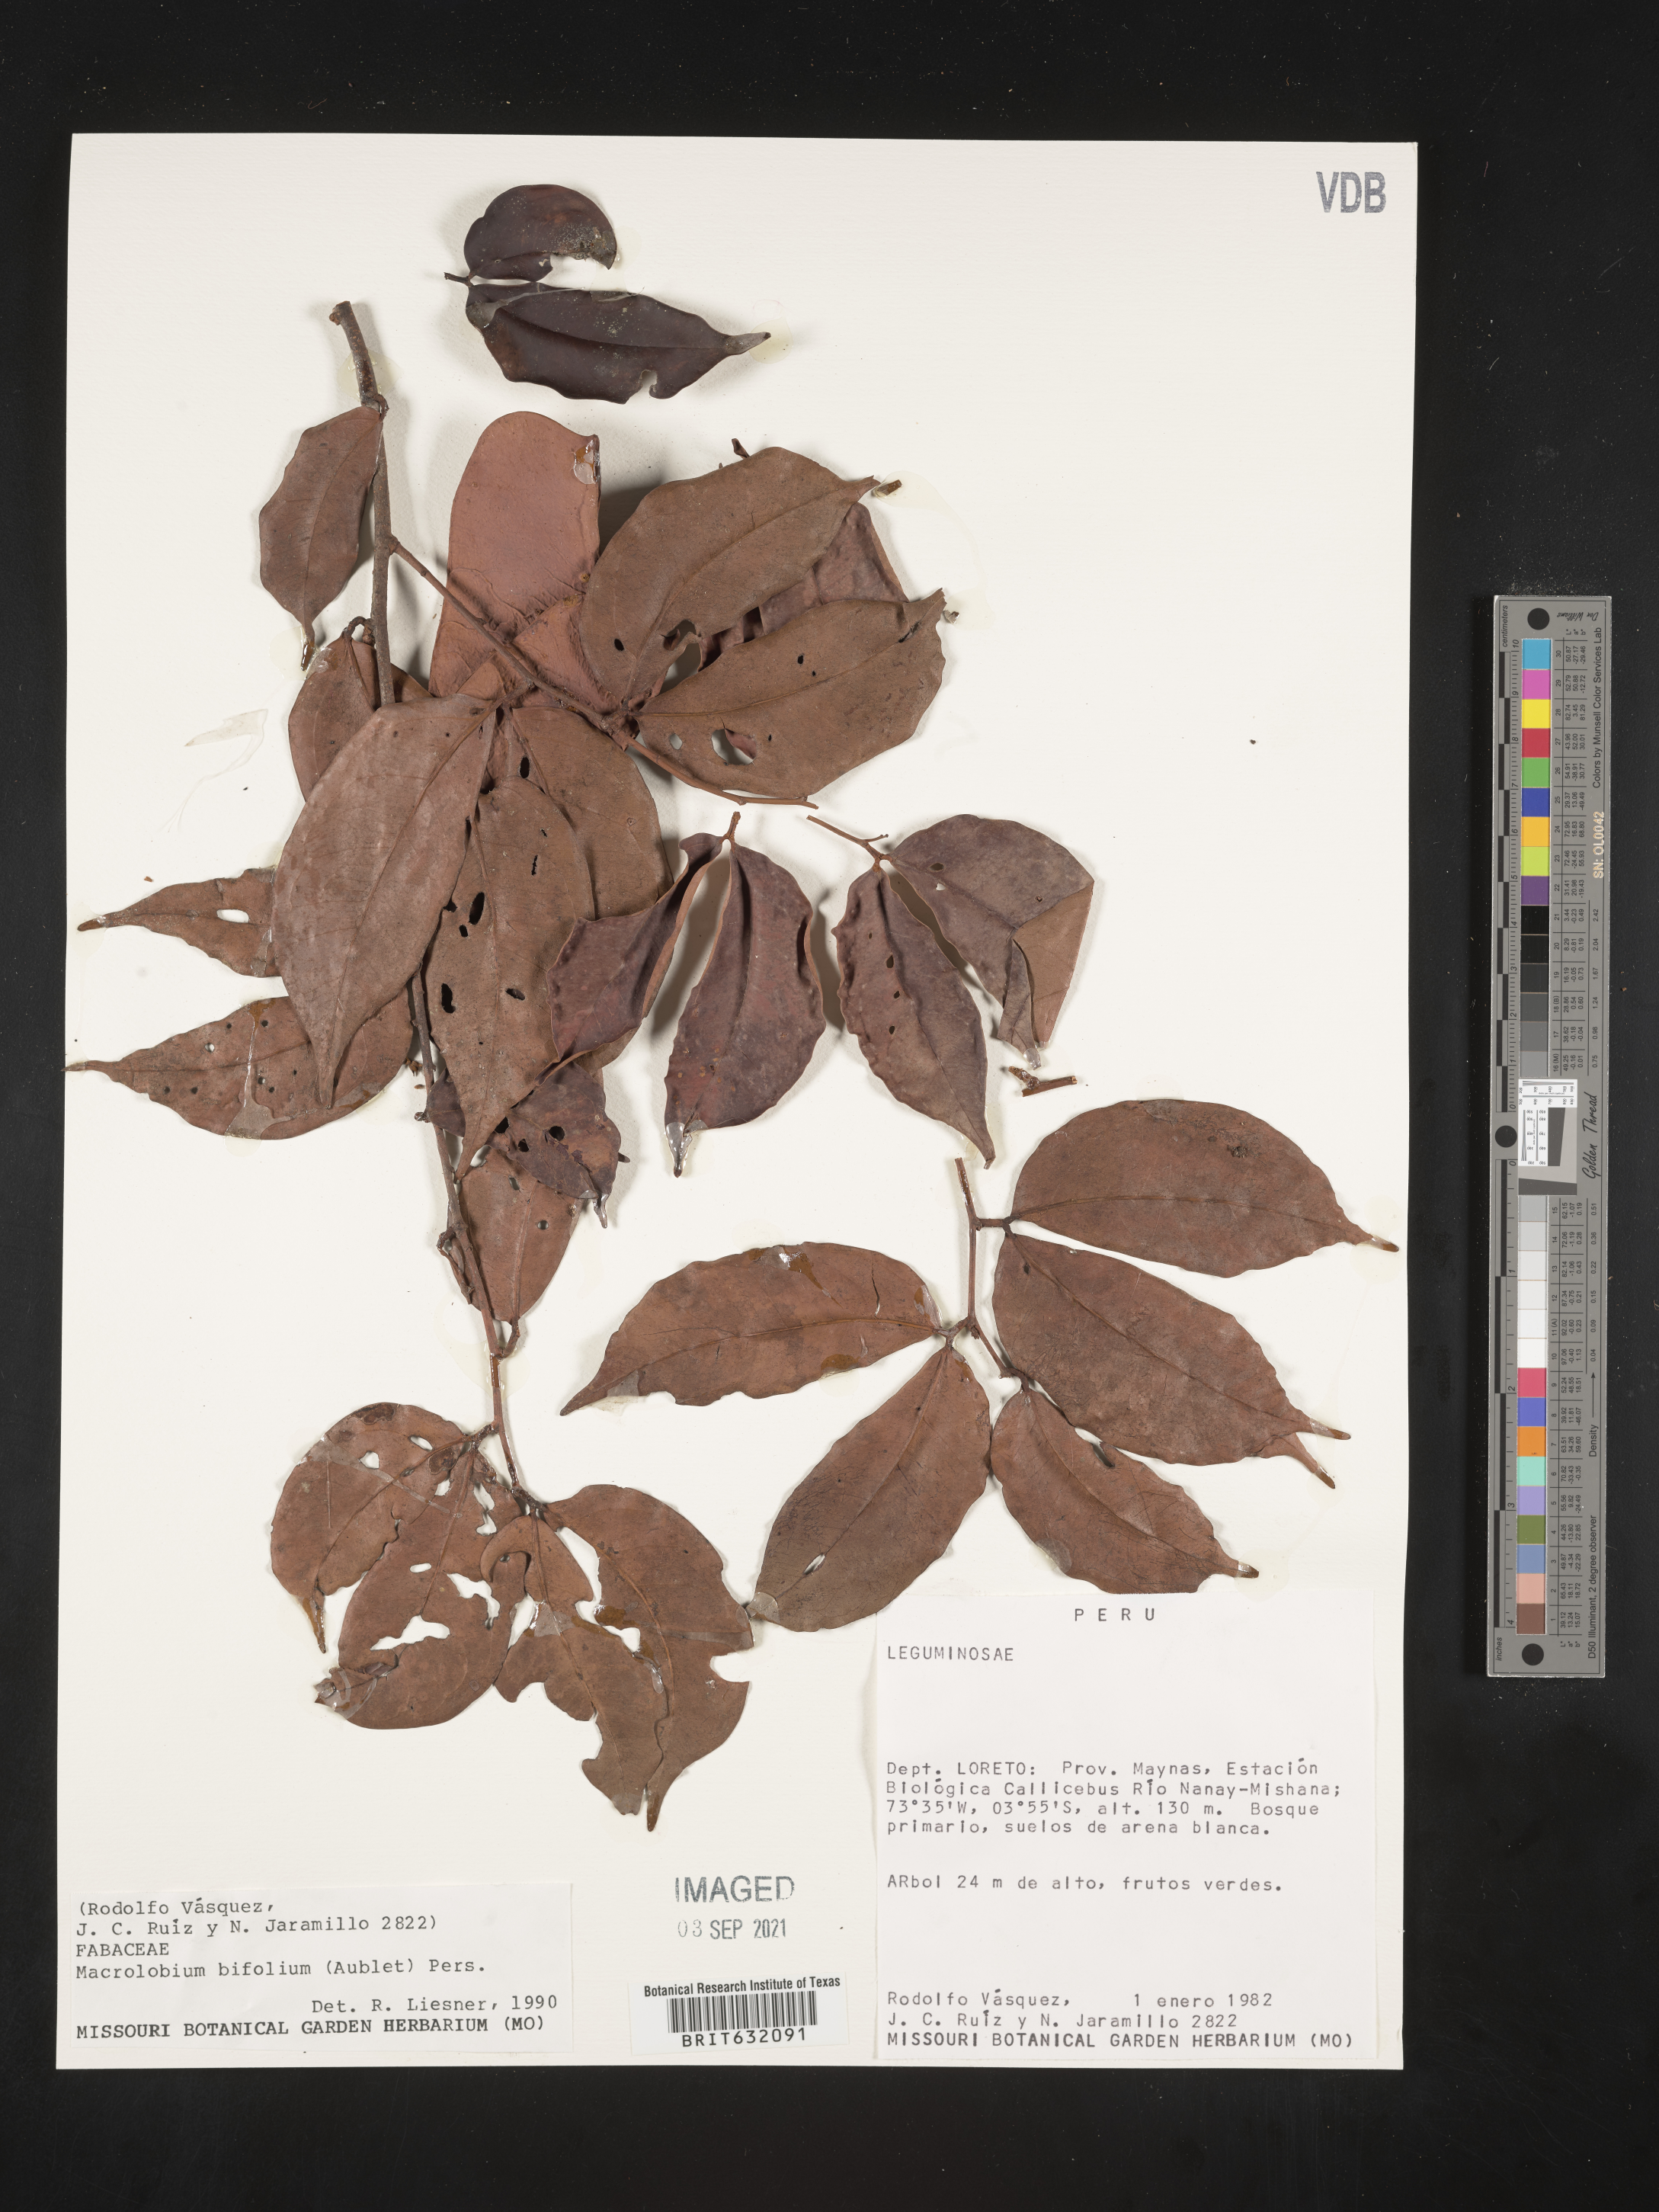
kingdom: Plantae
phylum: Tracheophyta
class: Magnoliopsida
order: Fabales
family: Fabaceae
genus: Macrolobium
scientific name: Macrolobium
